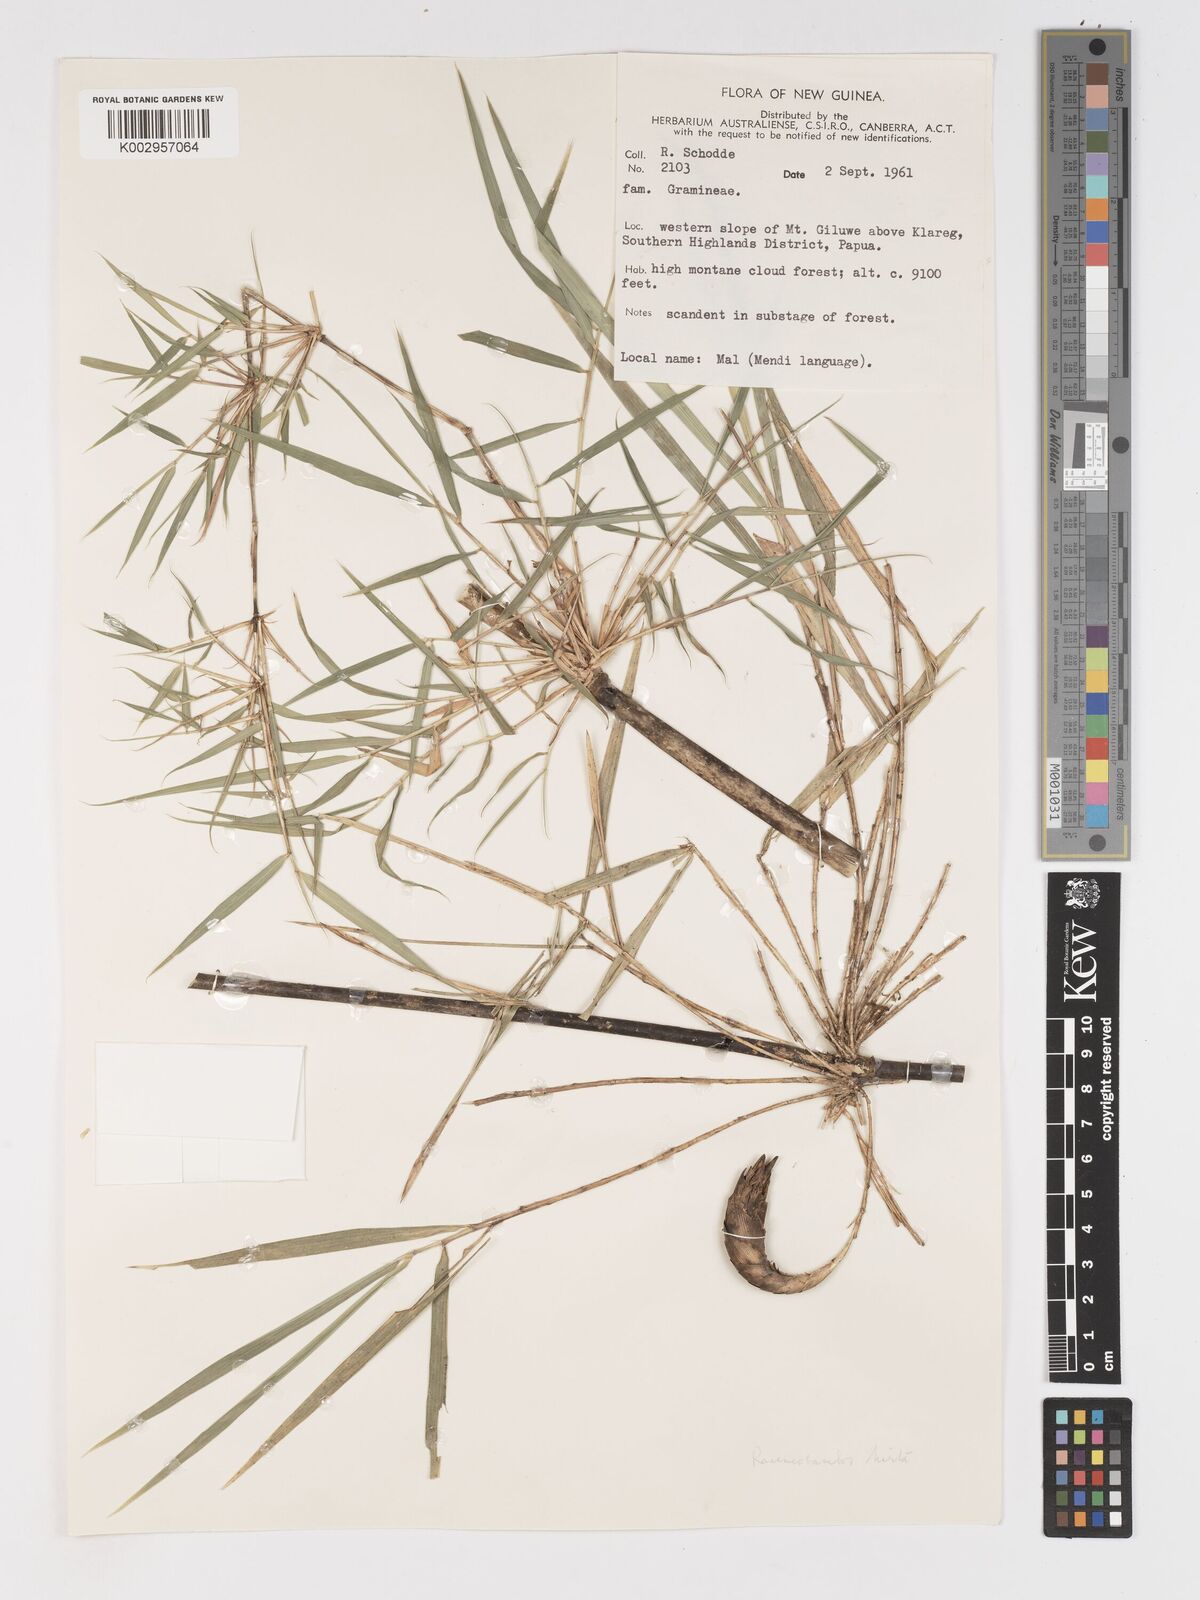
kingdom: Plantae
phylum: Tracheophyta
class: Liliopsida
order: Poales
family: Poaceae
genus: Racemobambos
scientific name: Racemobambos
